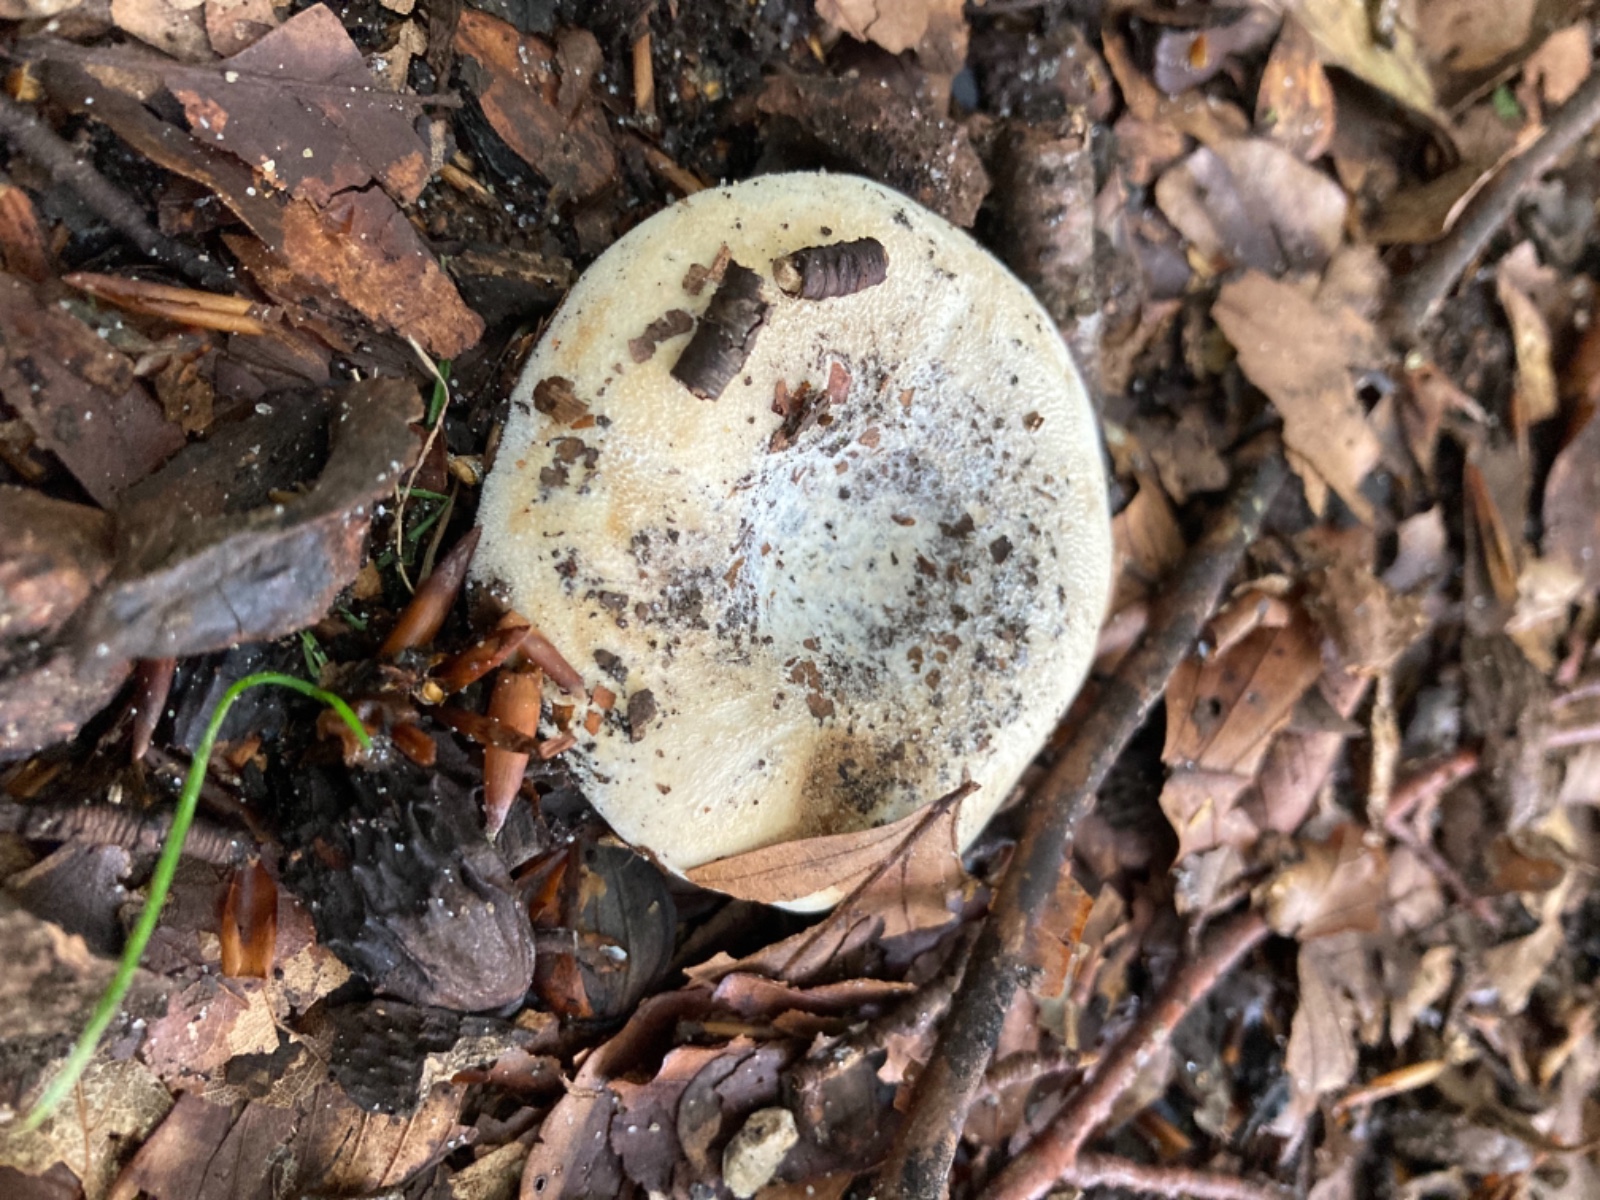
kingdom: Fungi
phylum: Basidiomycota
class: Agaricomycetes
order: Russulales
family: Russulaceae
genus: Lactifluus
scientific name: Lactifluus
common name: mælkehat
